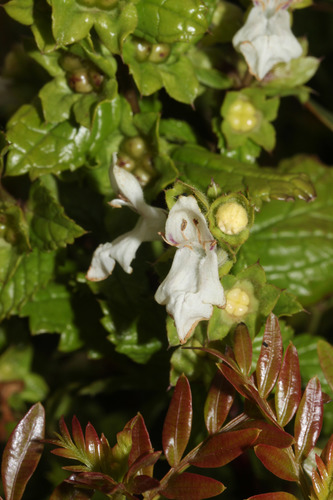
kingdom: Plantae
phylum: Tracheophyta
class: Magnoliopsida
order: Lamiales
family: Lamiaceae
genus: Prasium
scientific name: Prasium majus
